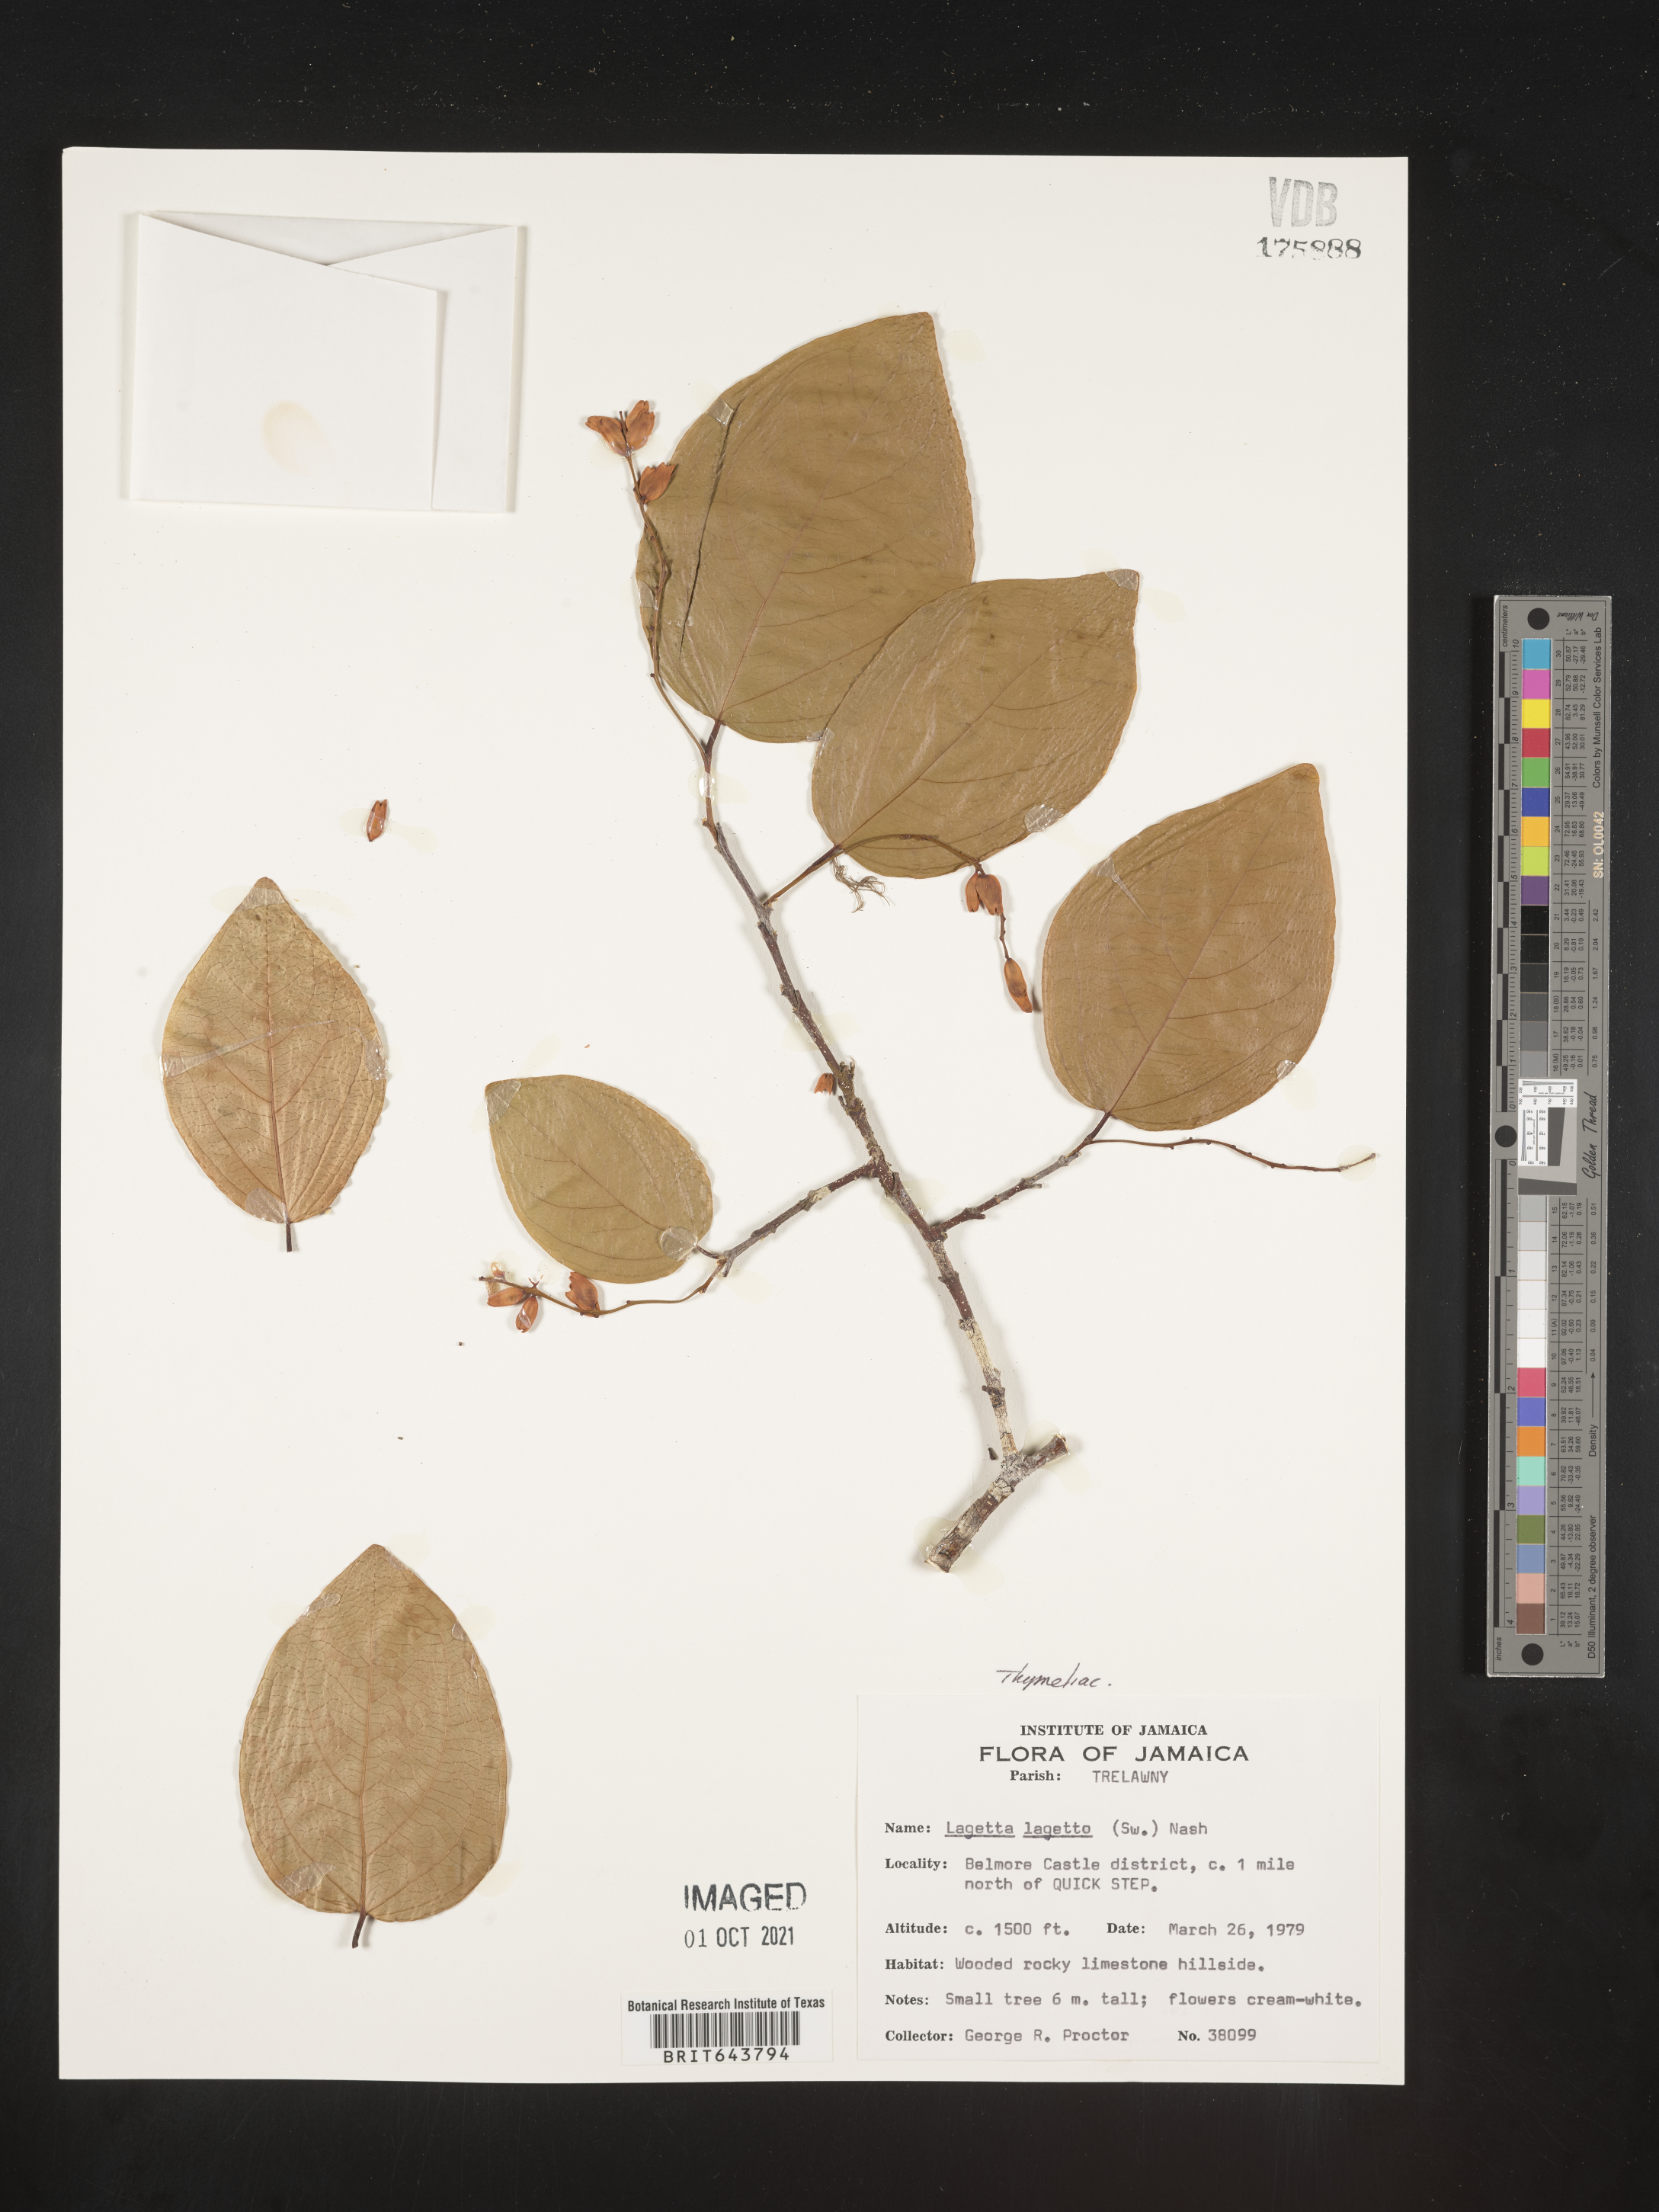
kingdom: Plantae
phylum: Tracheophyta
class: Magnoliopsida
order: Malvales
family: Thymelaeaceae
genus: Lagetta
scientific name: Lagetta
